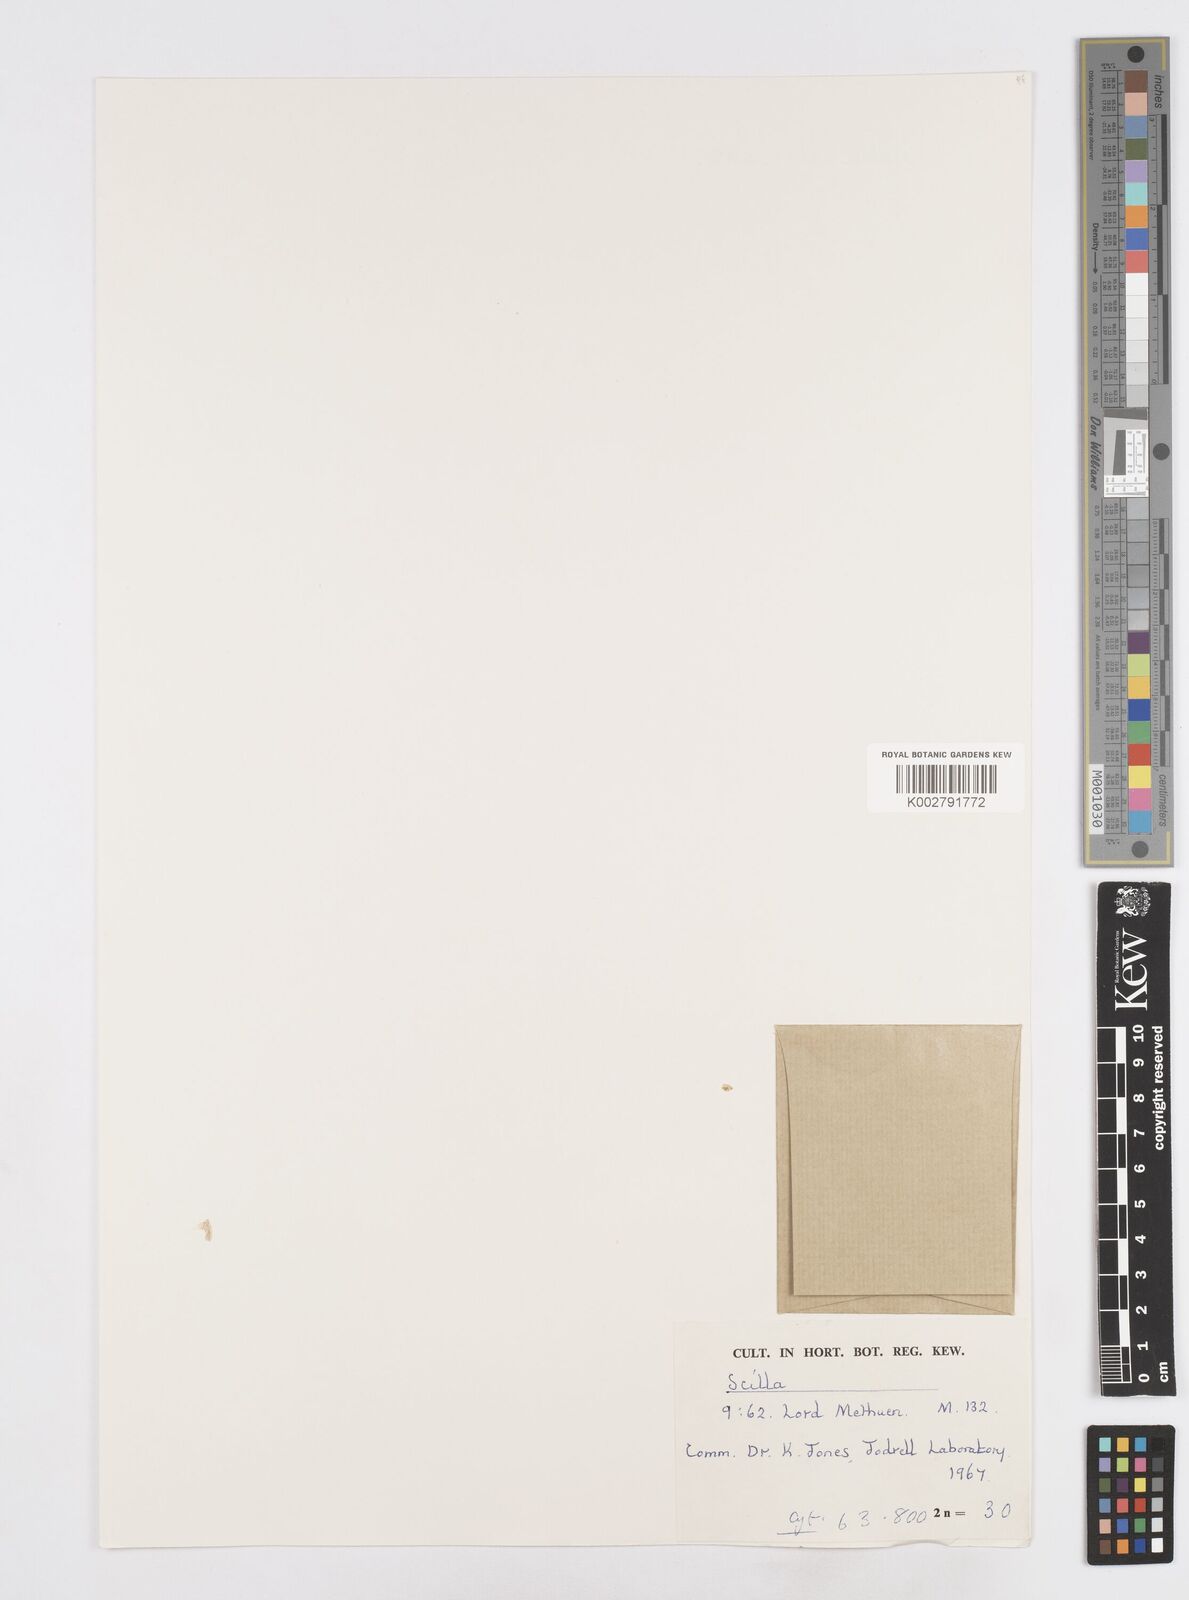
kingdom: Plantae
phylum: Tracheophyta
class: Liliopsida
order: Asparagales
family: Asparagaceae
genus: Scilla
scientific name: Scilla
